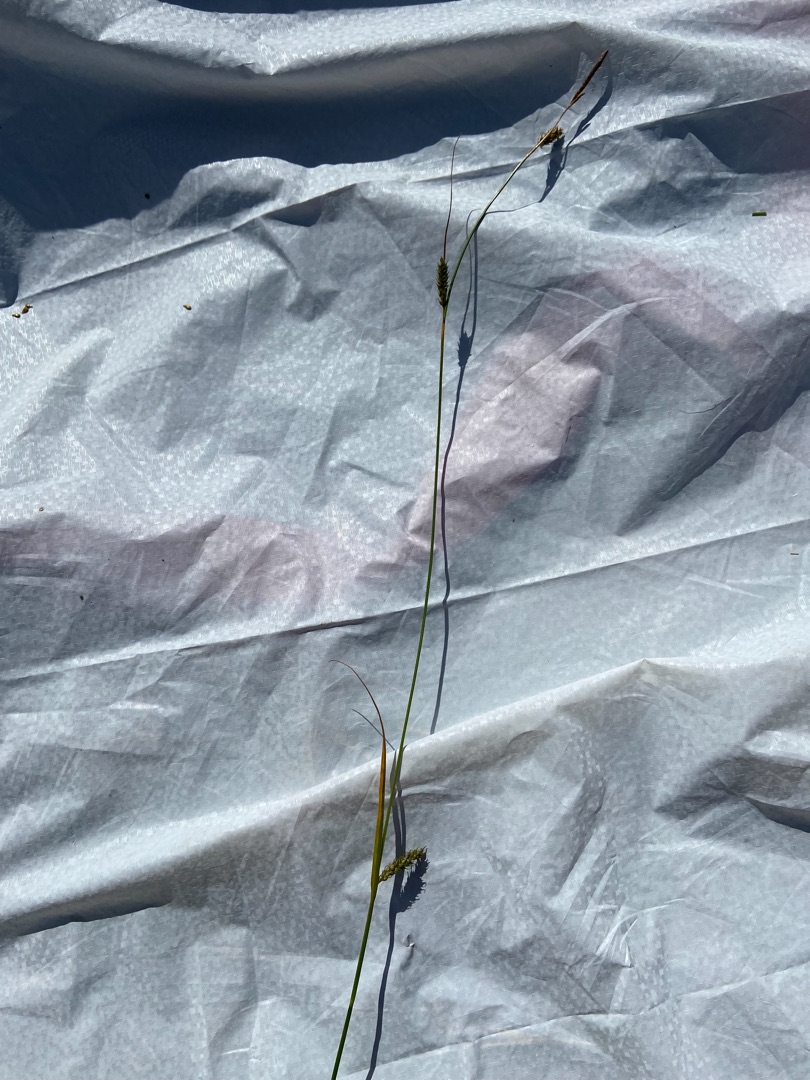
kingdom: Plantae
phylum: Tracheophyta
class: Liliopsida
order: Poales
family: Cyperaceae
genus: Carex
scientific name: Carex distans
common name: Fjernakset star
